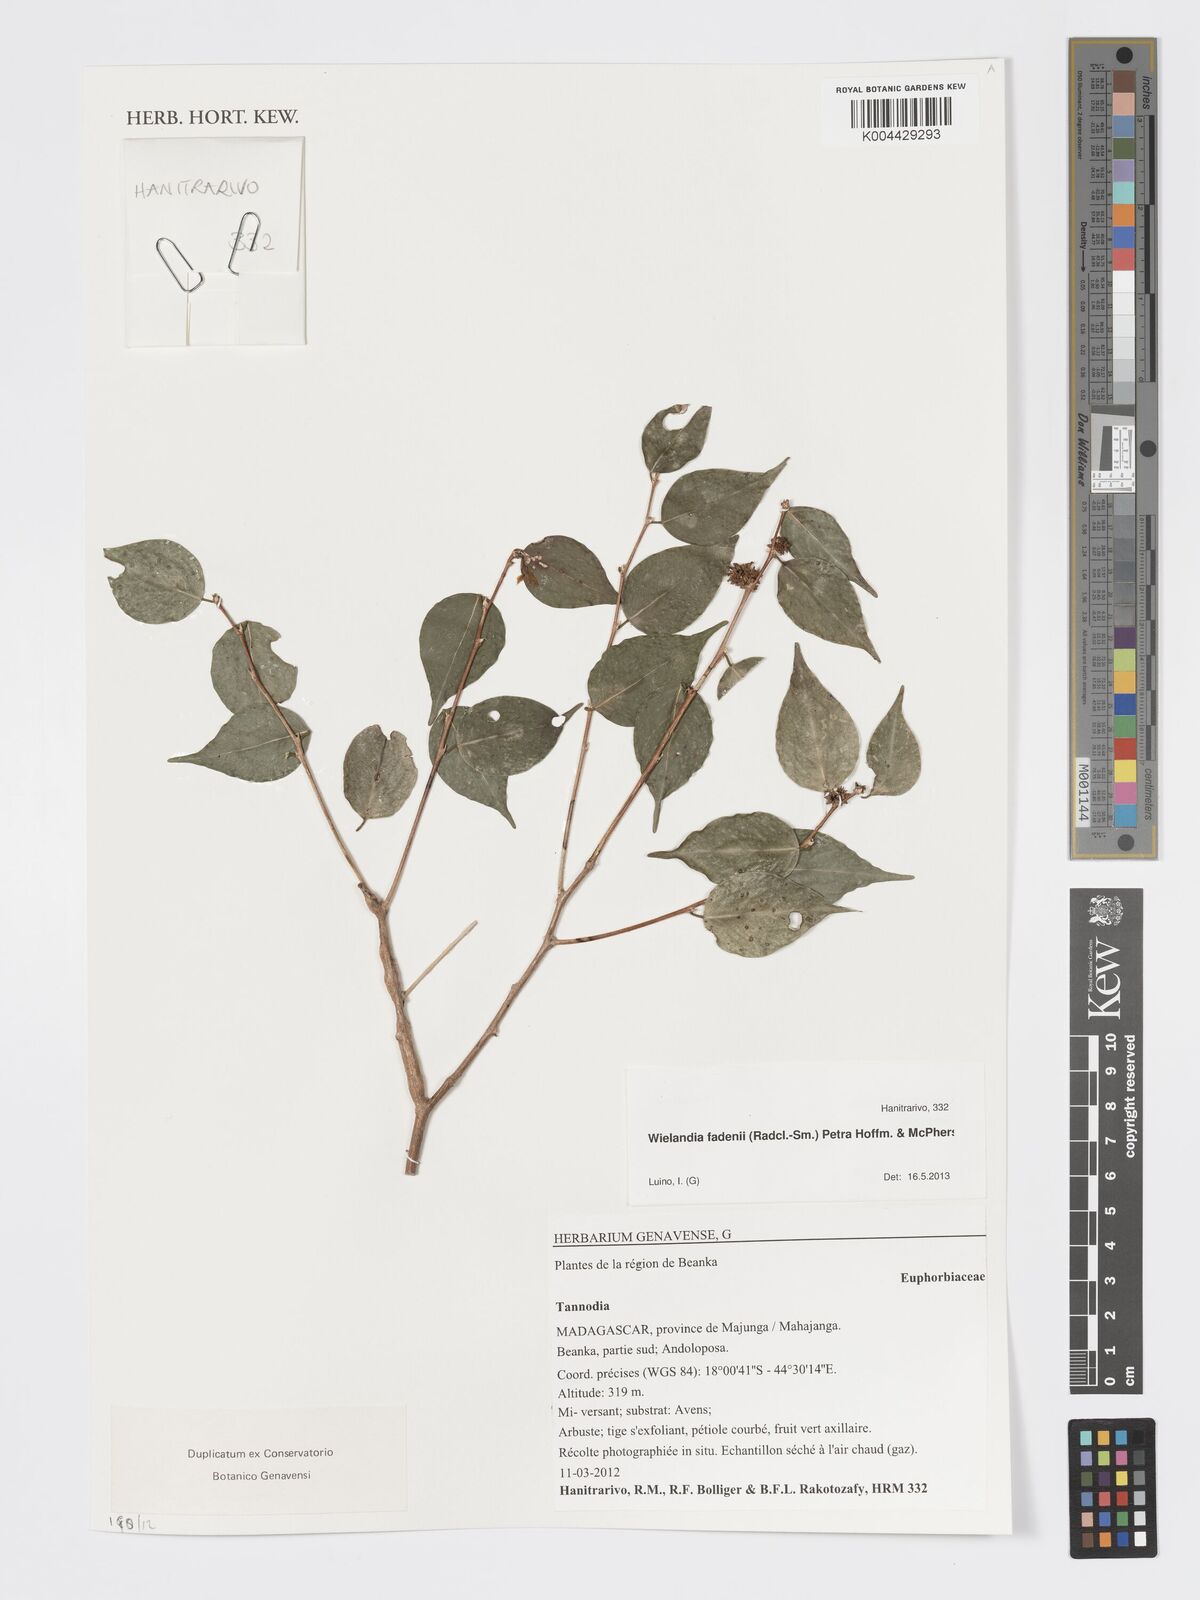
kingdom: Plantae
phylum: Tracheophyta
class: Magnoliopsida
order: Malpighiales
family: Phyllanthaceae
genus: Wielandia
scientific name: Wielandia fadenii
